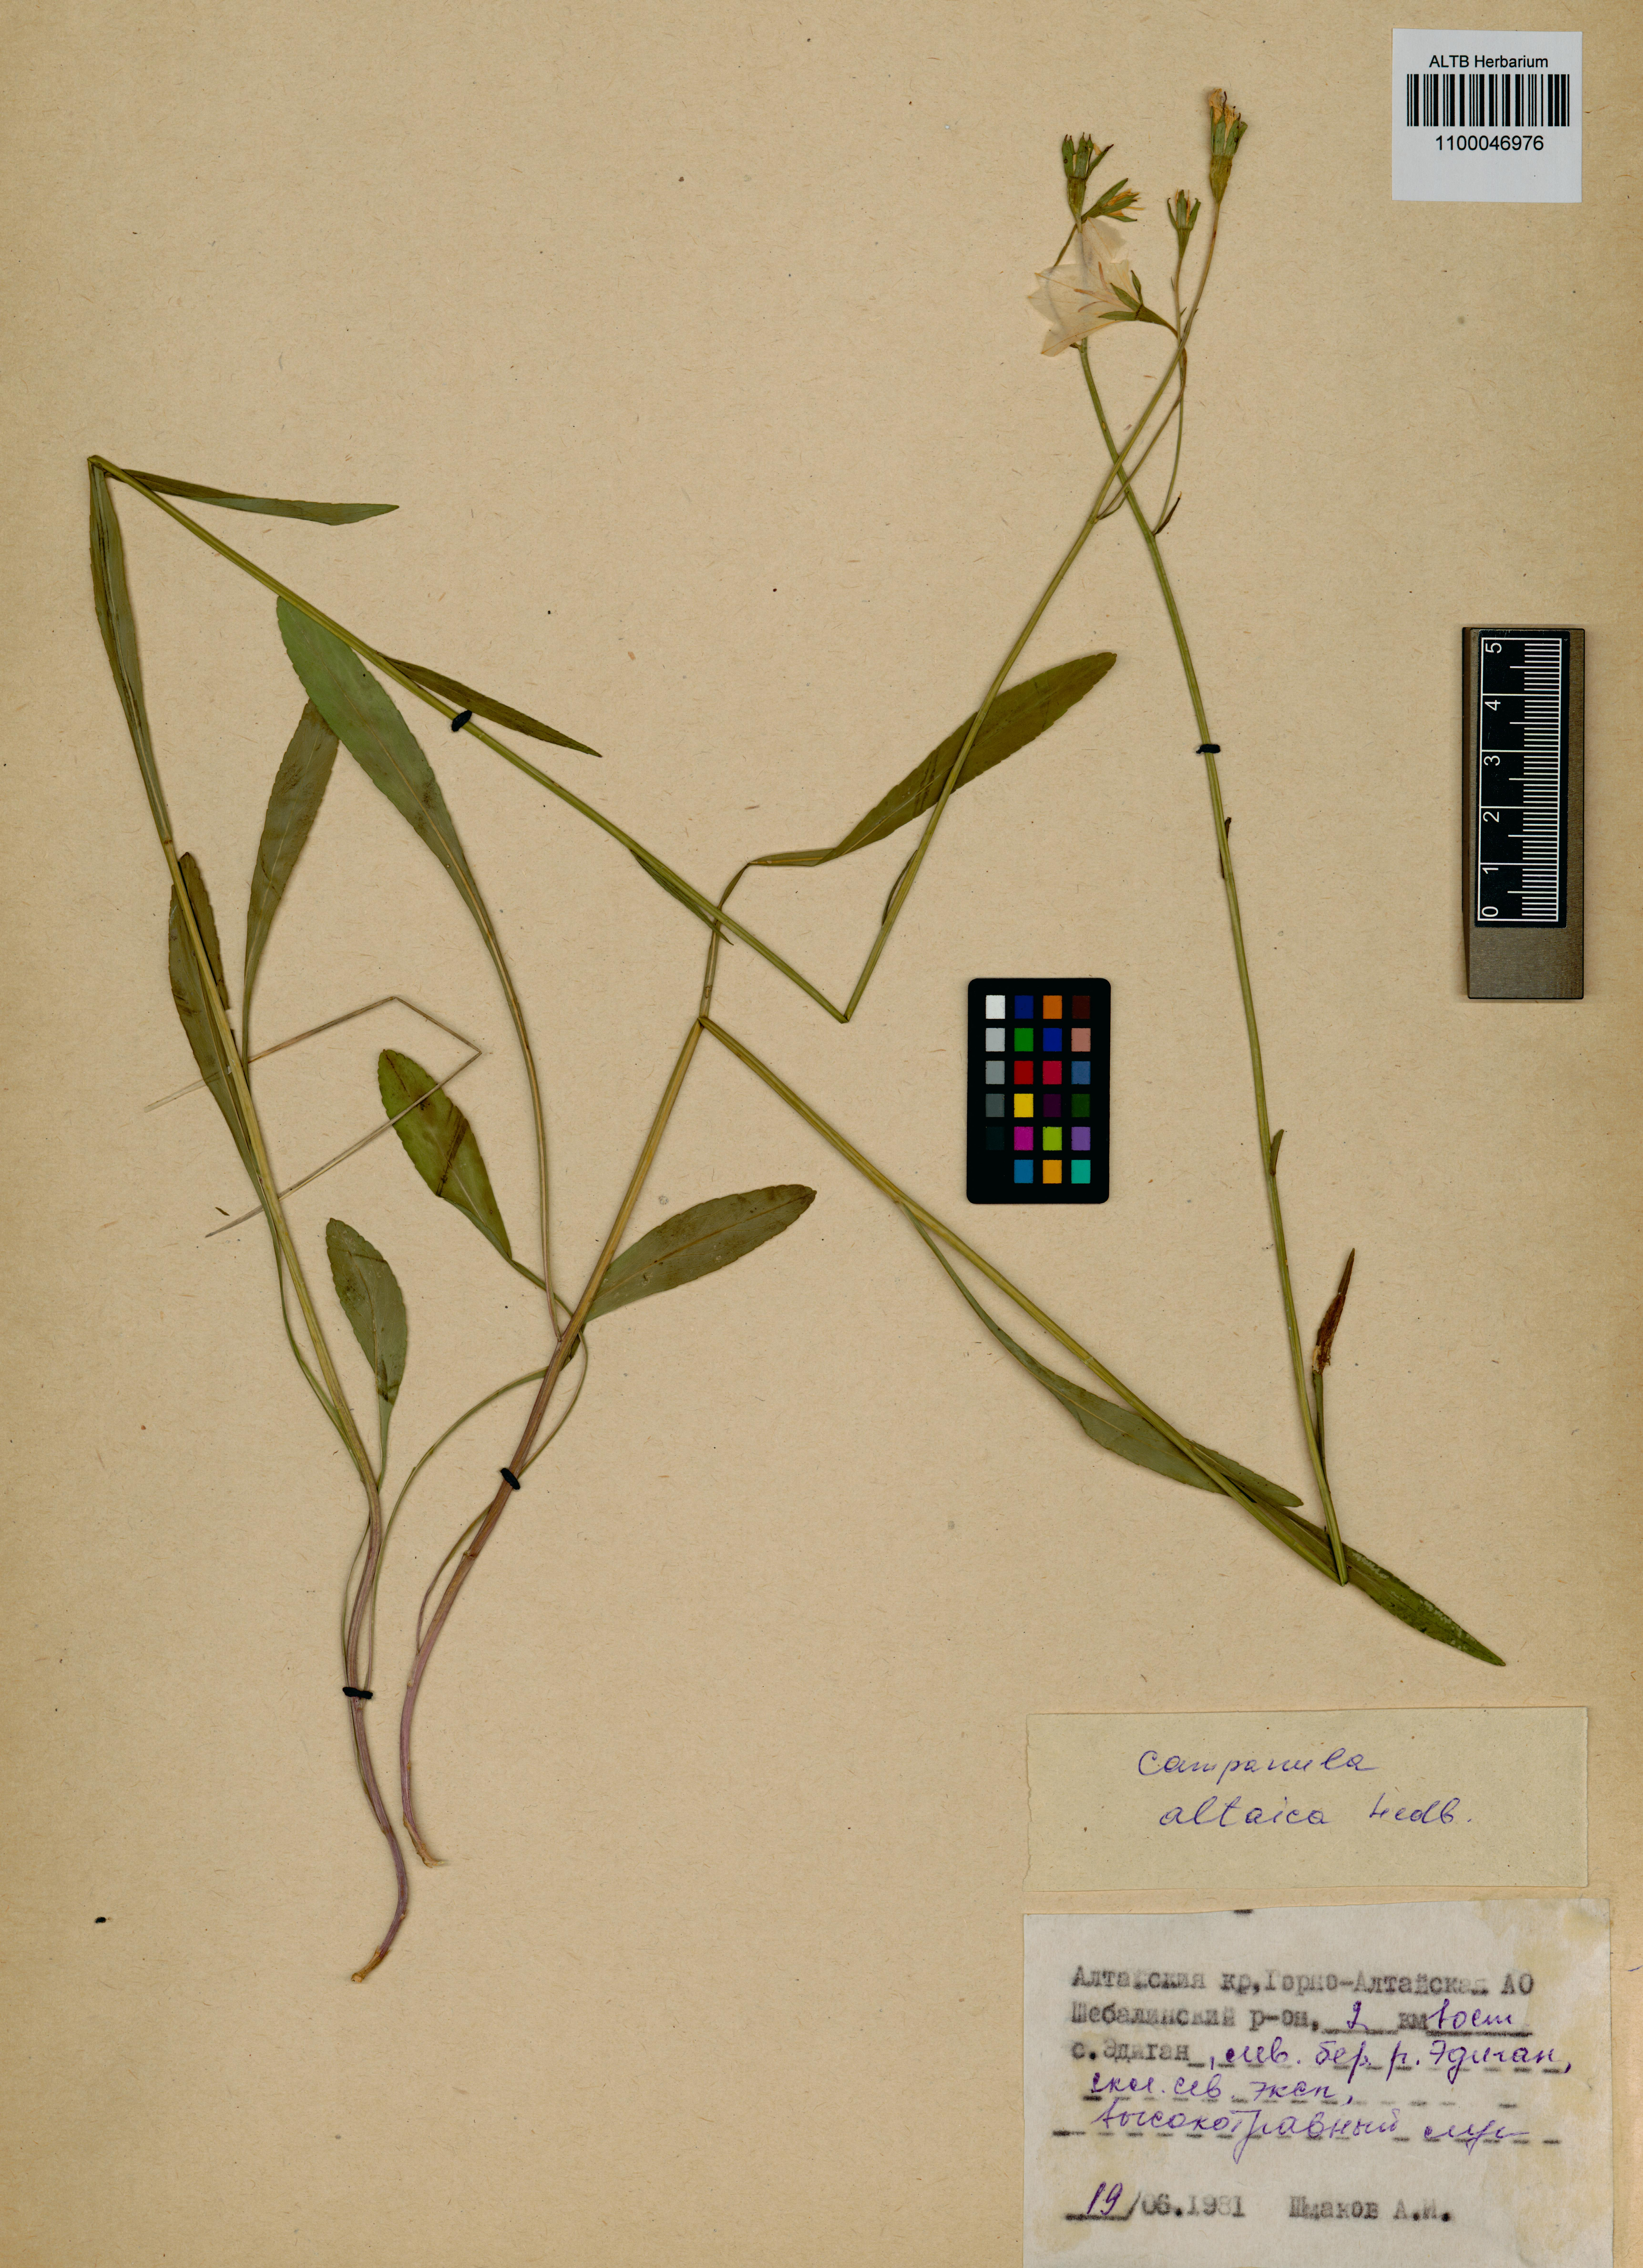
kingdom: Plantae
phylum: Tracheophyta
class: Magnoliopsida
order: Asterales
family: Campanulaceae
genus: Campanula
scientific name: Campanula stevenii
